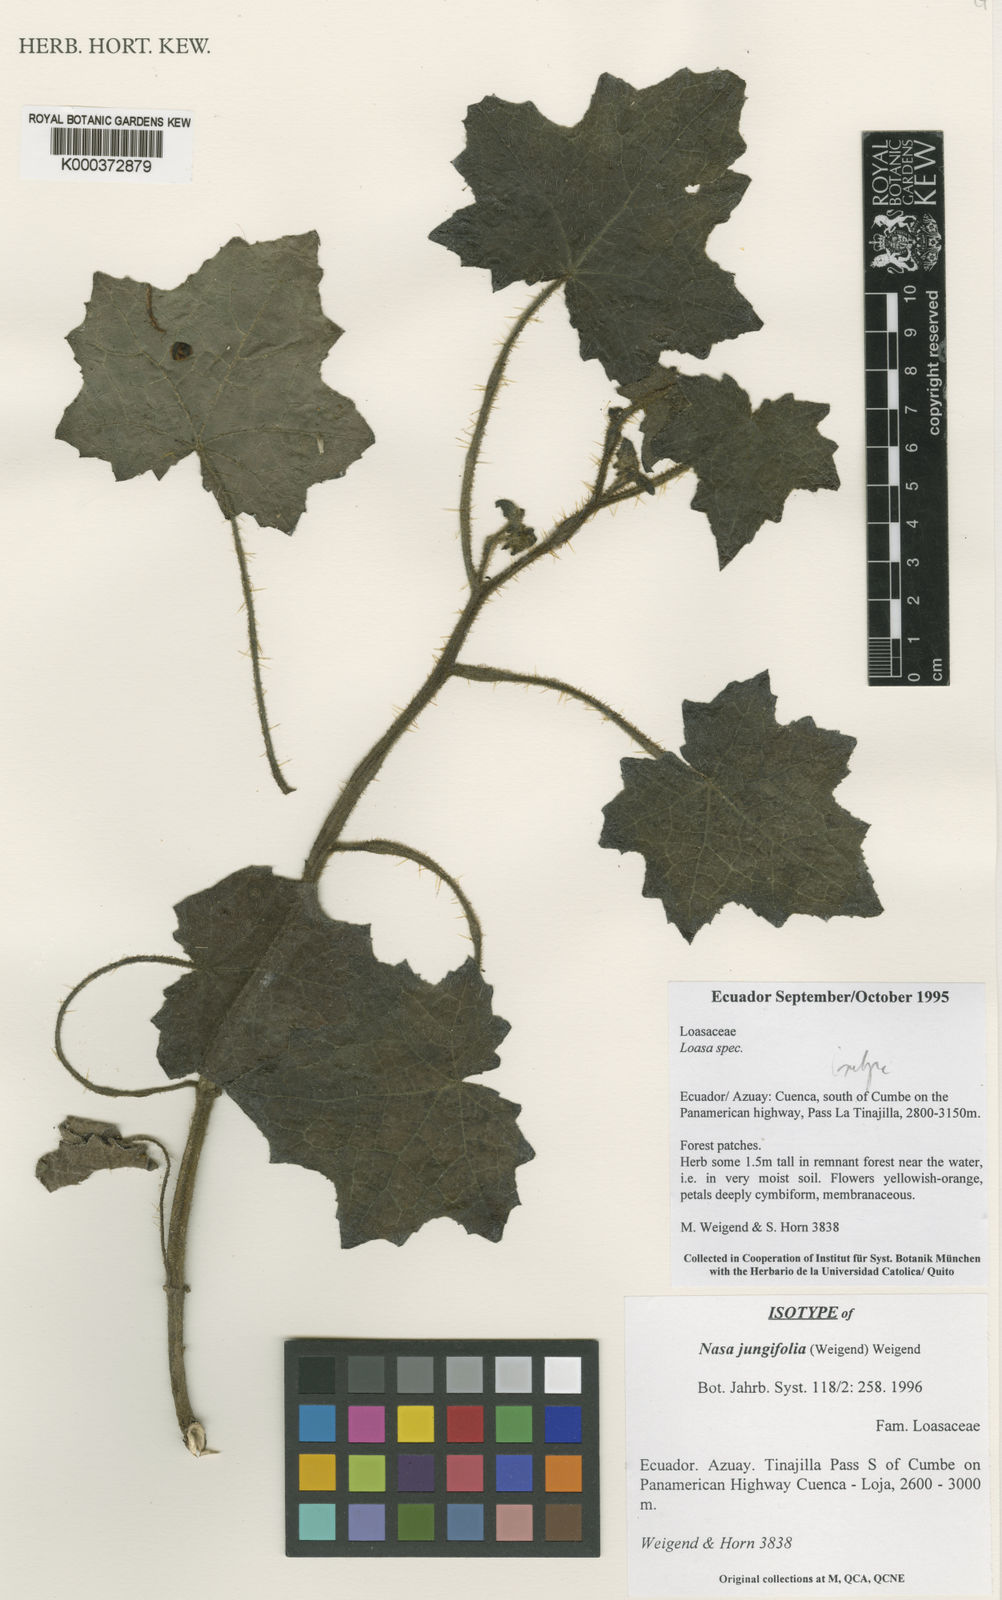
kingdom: Plantae
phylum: Tracheophyta
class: Magnoliopsida
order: Cornales
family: Loasaceae
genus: Nasa
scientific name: Nasa jungiifolia
